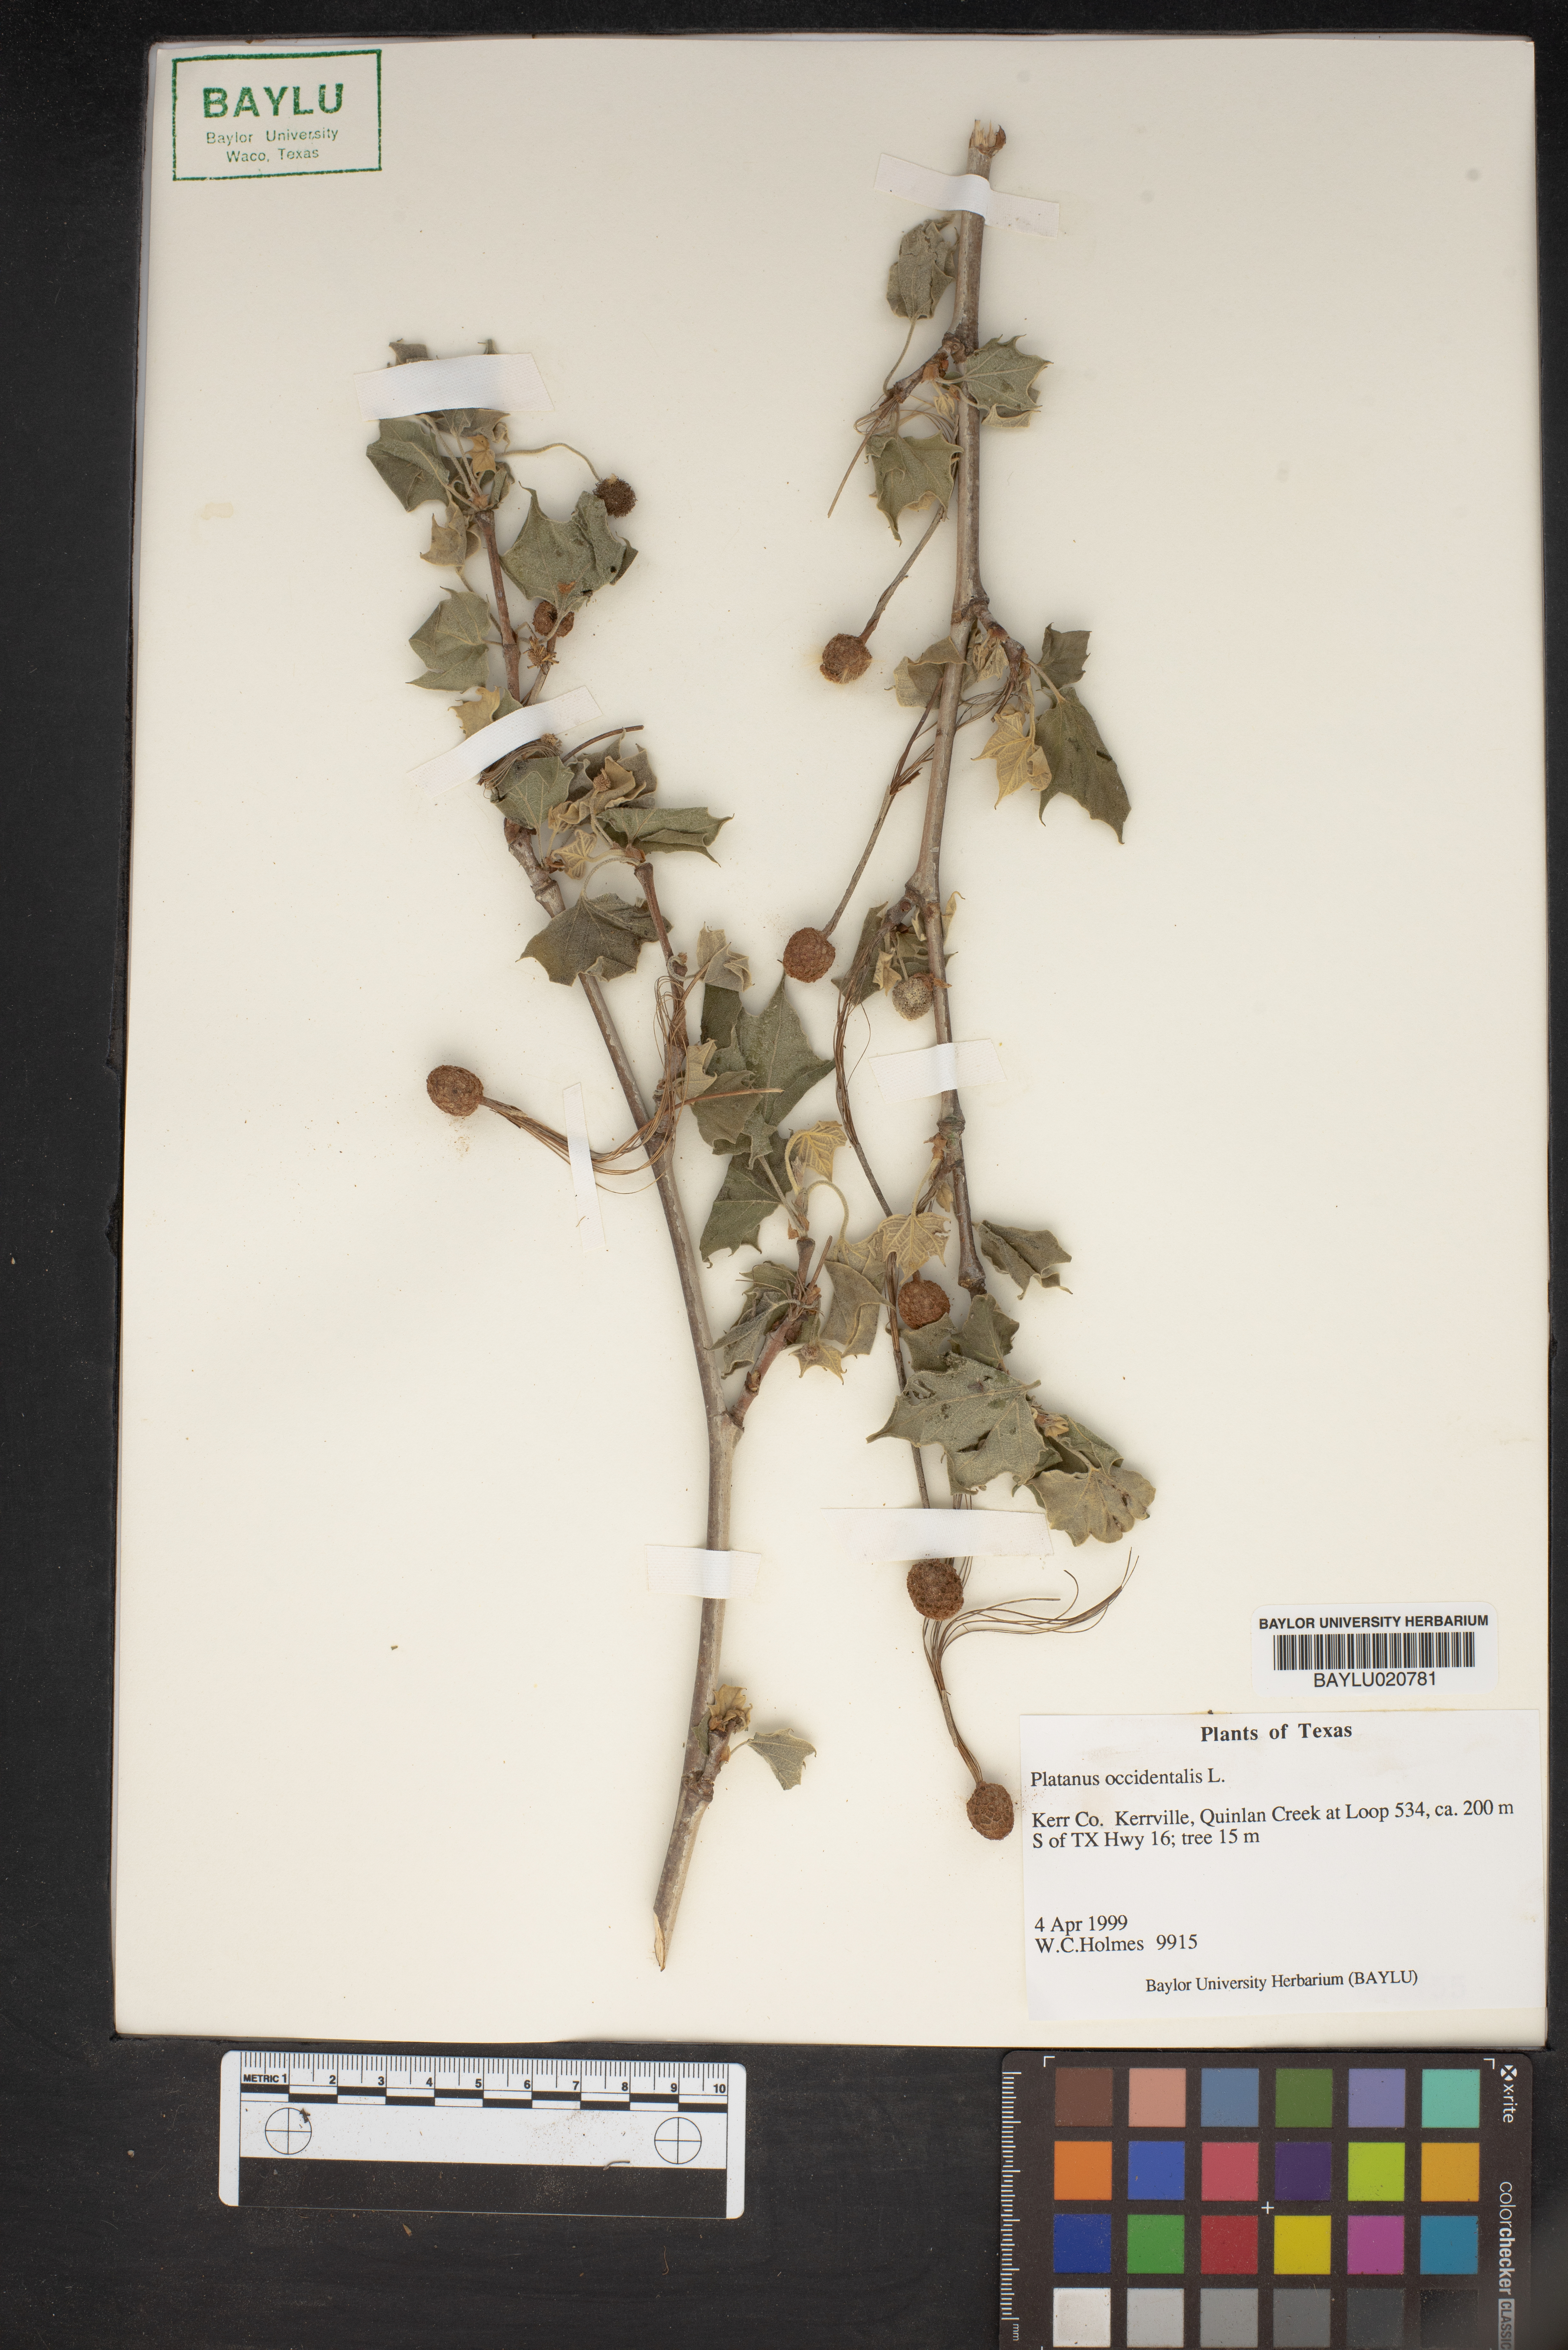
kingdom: Plantae
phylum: Tracheophyta
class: Magnoliopsida
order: Proteales
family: Platanaceae
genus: Platanus
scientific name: Platanus occidentalis
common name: American sycamore
